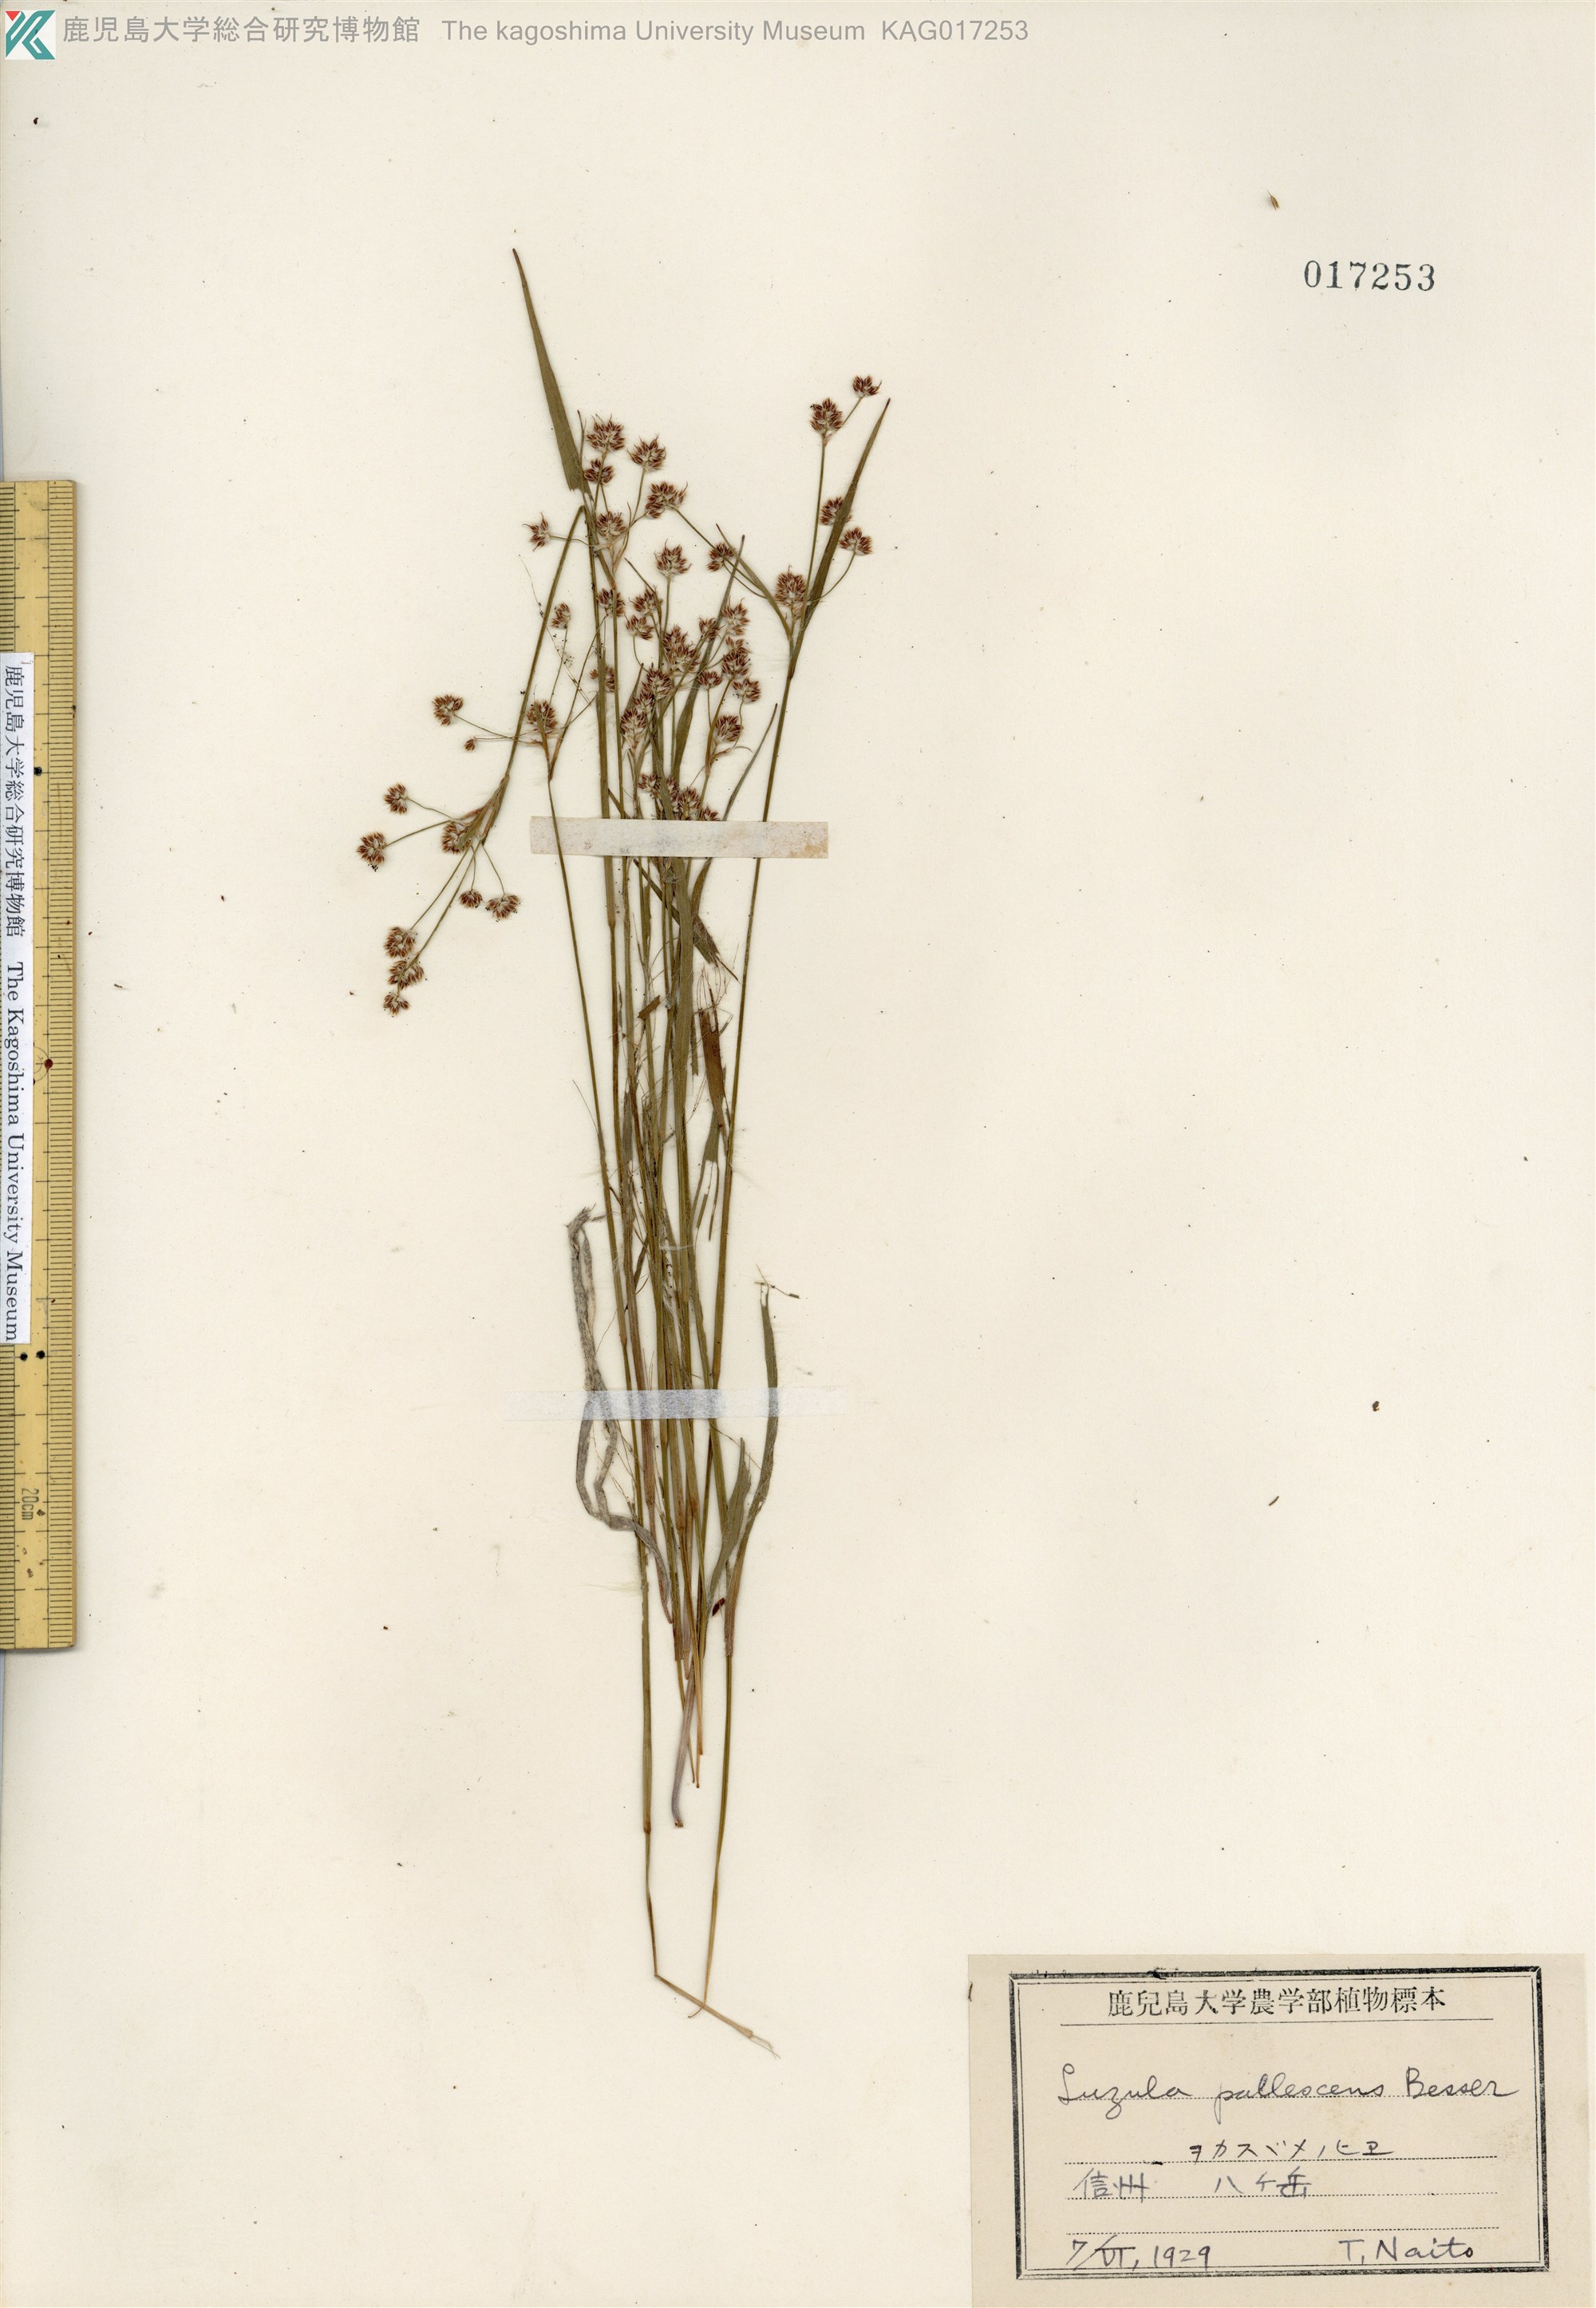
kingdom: Plantae
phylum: Tracheophyta
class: Liliopsida
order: Poales
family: Juncaceae
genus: Luzula
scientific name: Luzula pallescens
